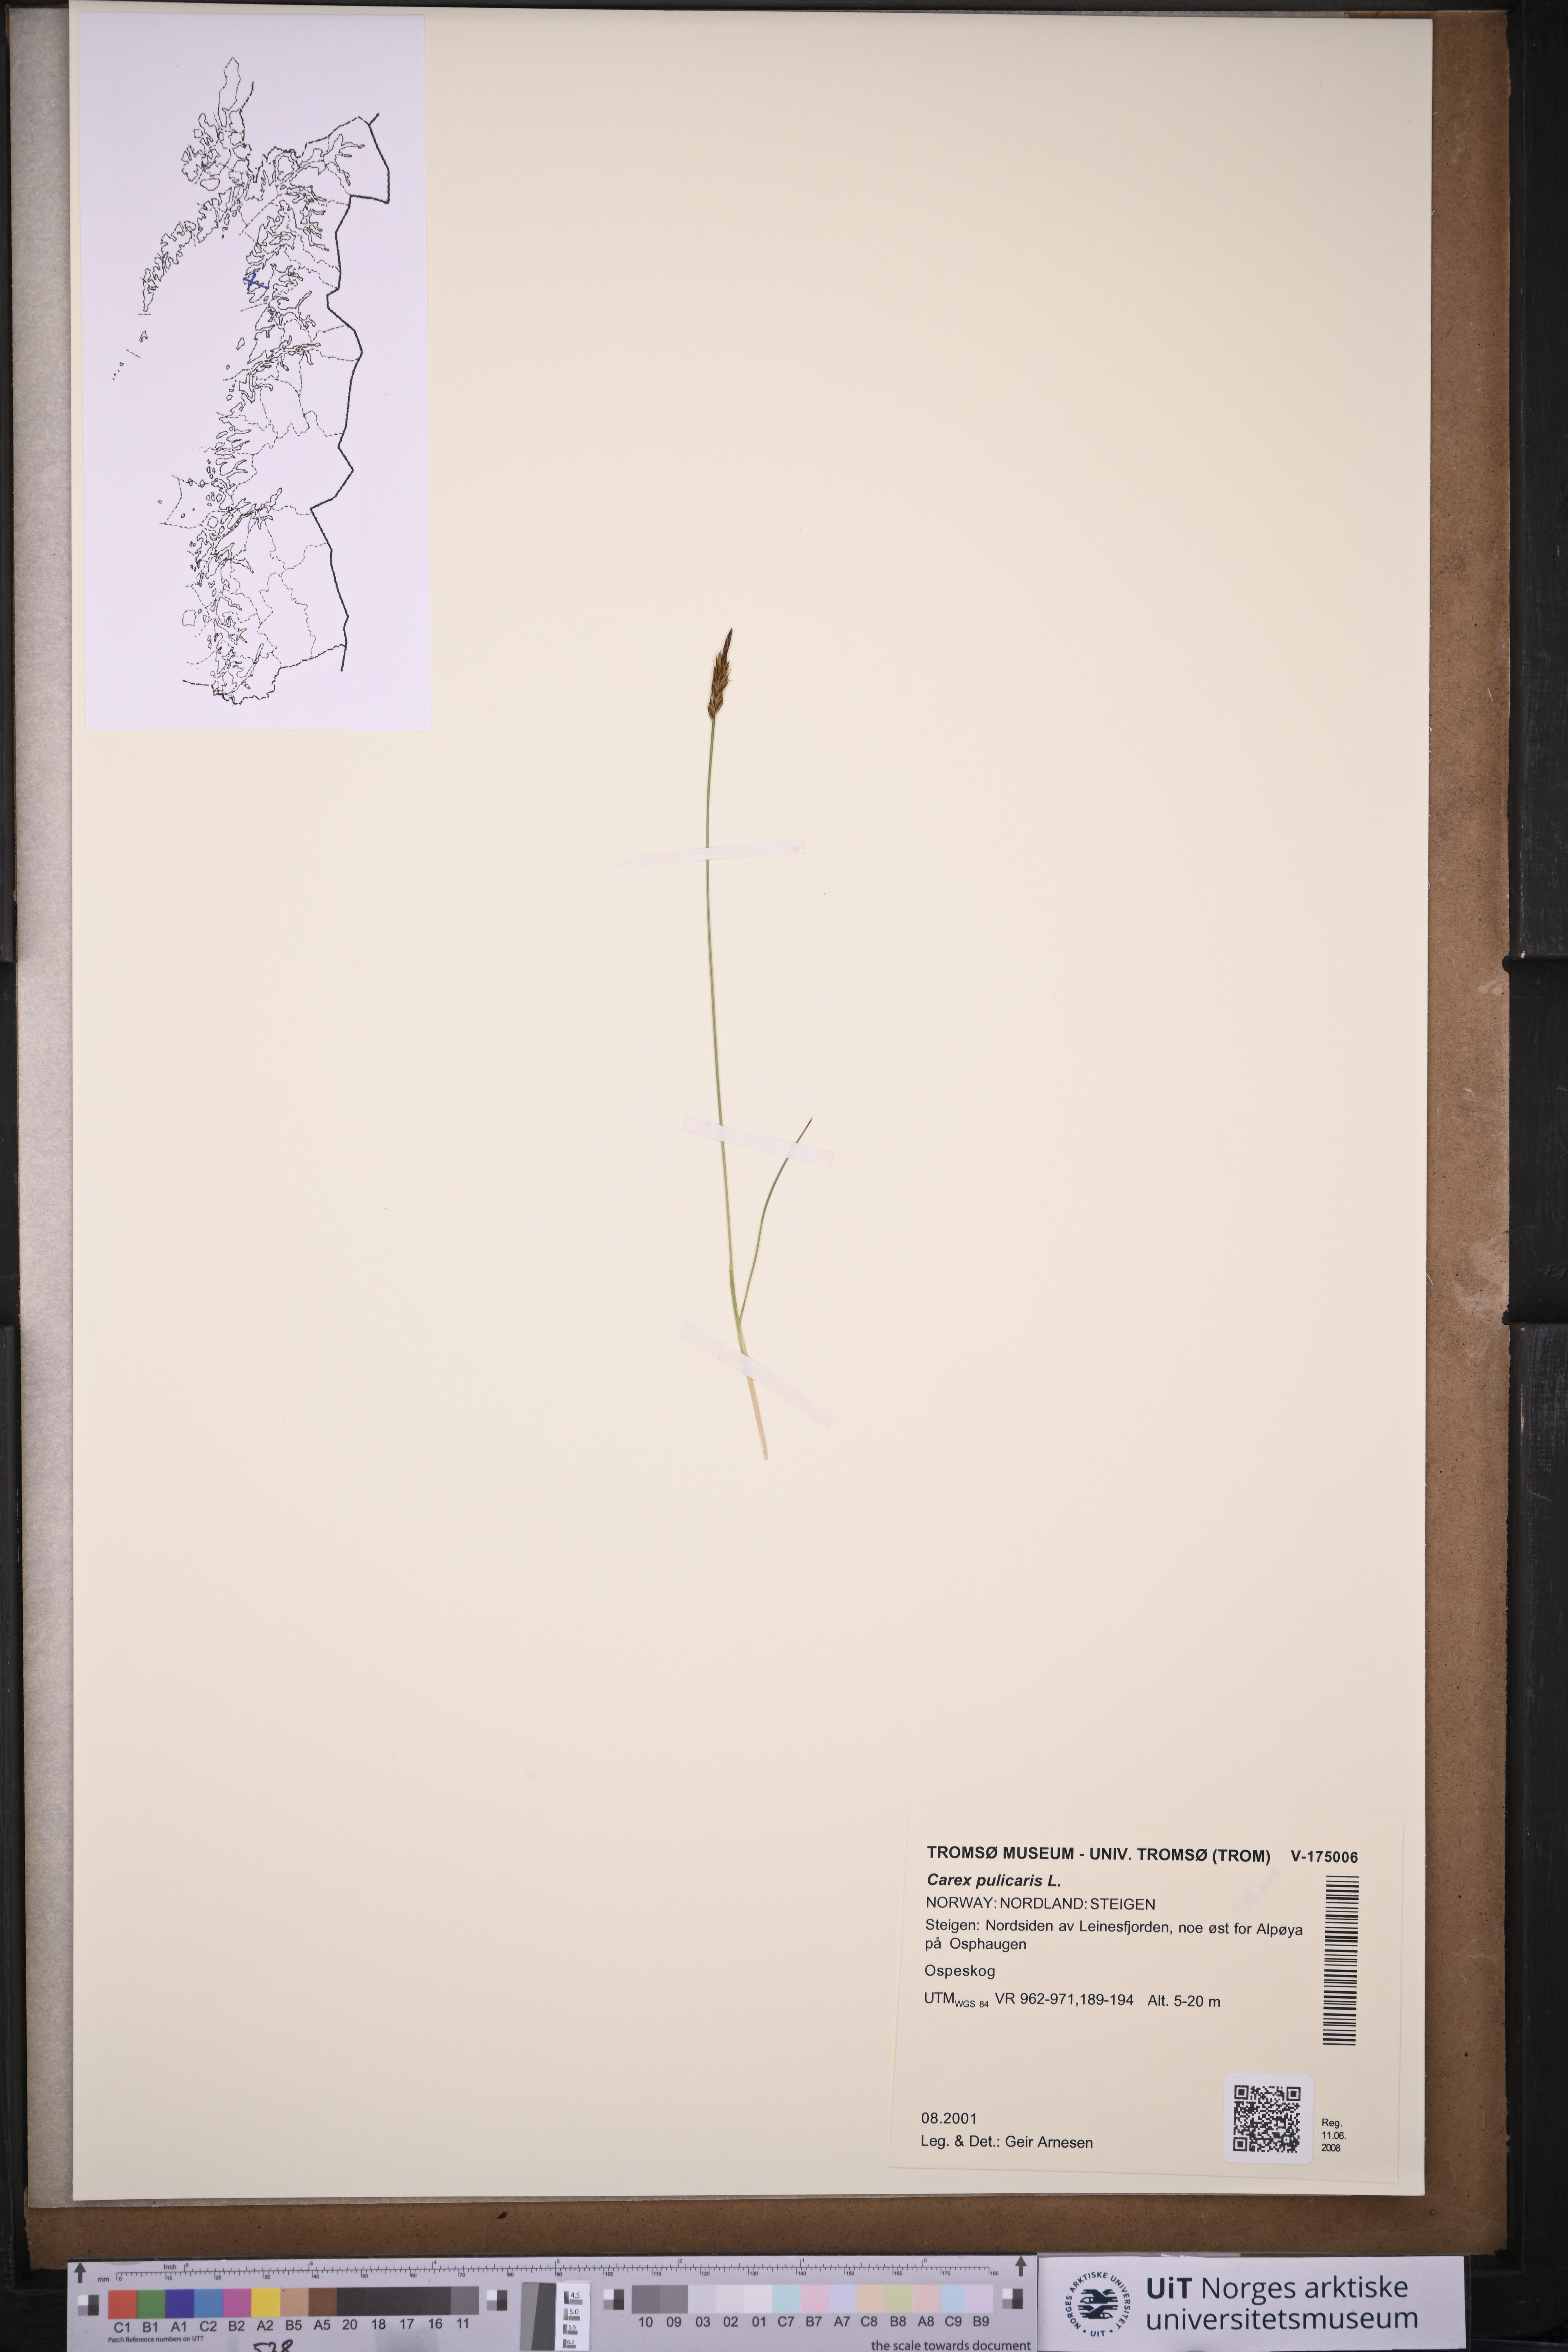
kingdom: Plantae
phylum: Tracheophyta
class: Liliopsida
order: Poales
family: Cyperaceae
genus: Carex
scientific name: Carex pulicaris
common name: Flea sedge
